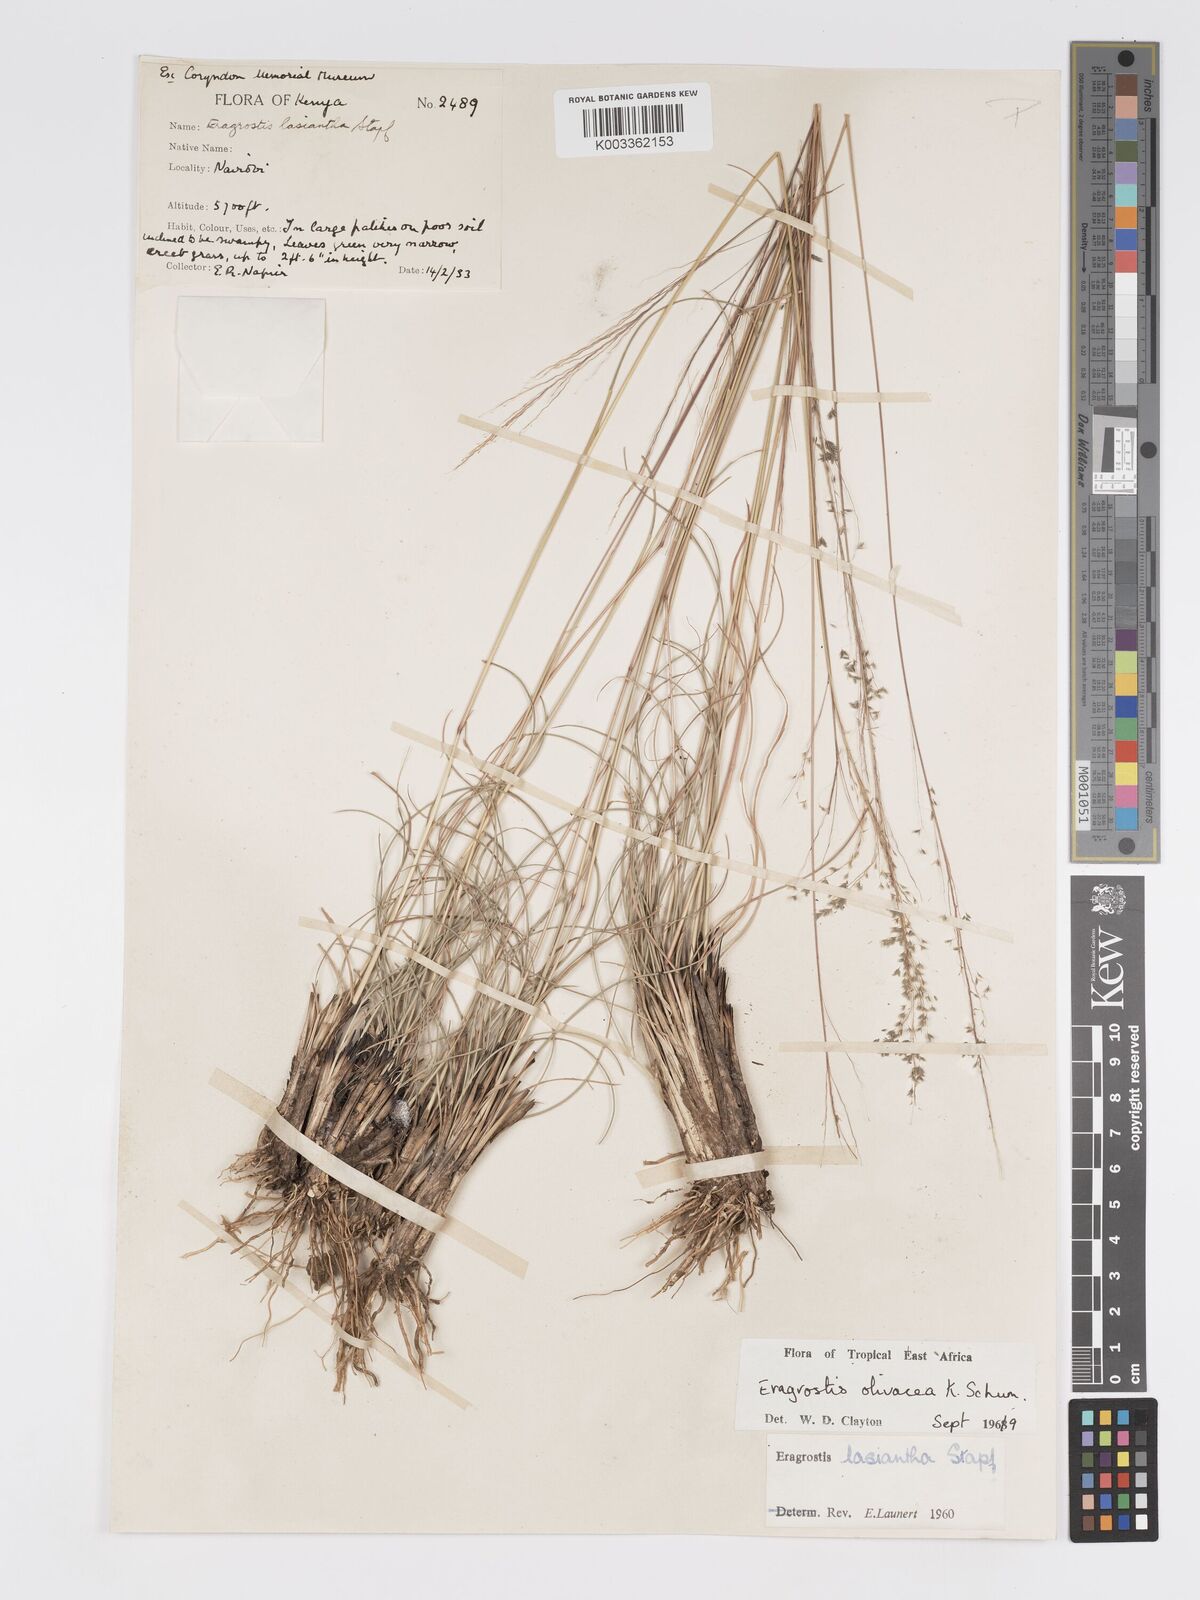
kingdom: Plantae
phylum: Tracheophyta
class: Liliopsida
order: Poales
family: Poaceae
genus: Eragrostis
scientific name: Eragrostis olivacea
